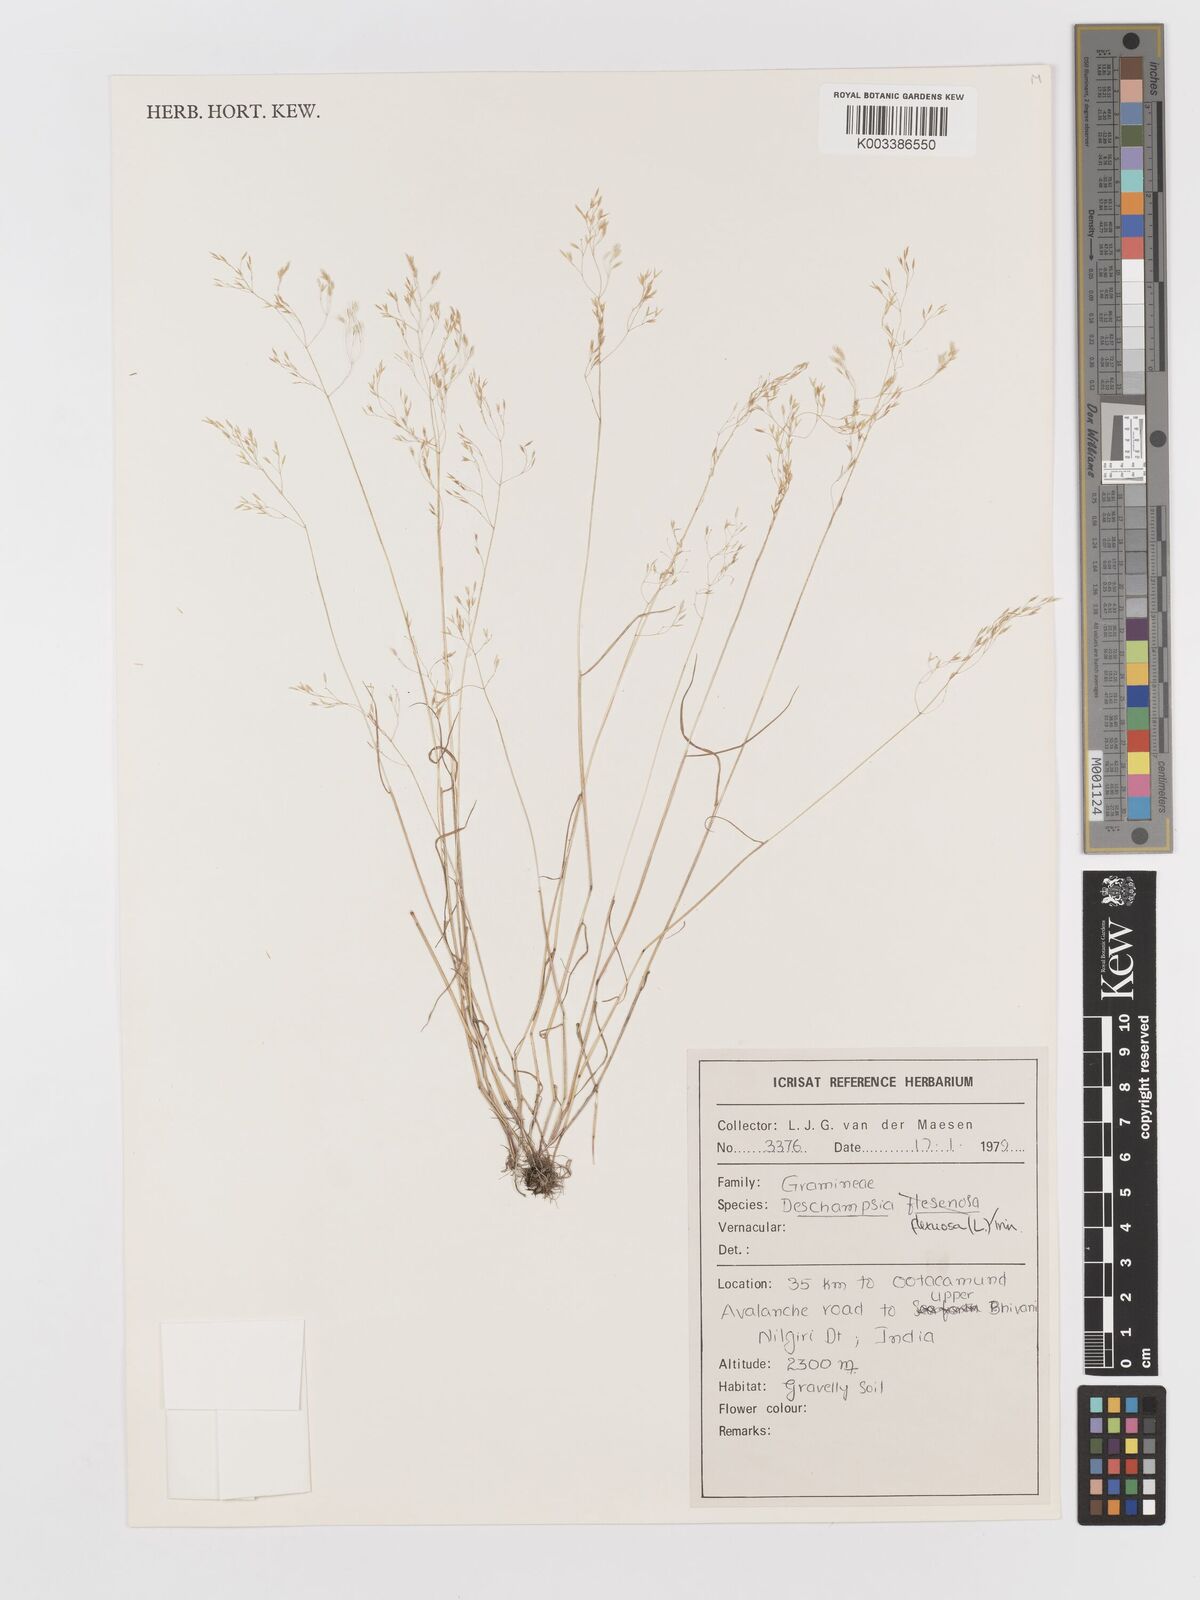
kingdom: Plantae
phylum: Tracheophyta
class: Liliopsida
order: Poales
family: Poaceae
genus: Avenella
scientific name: Avenella flexuosa
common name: Wavy hairgrass
